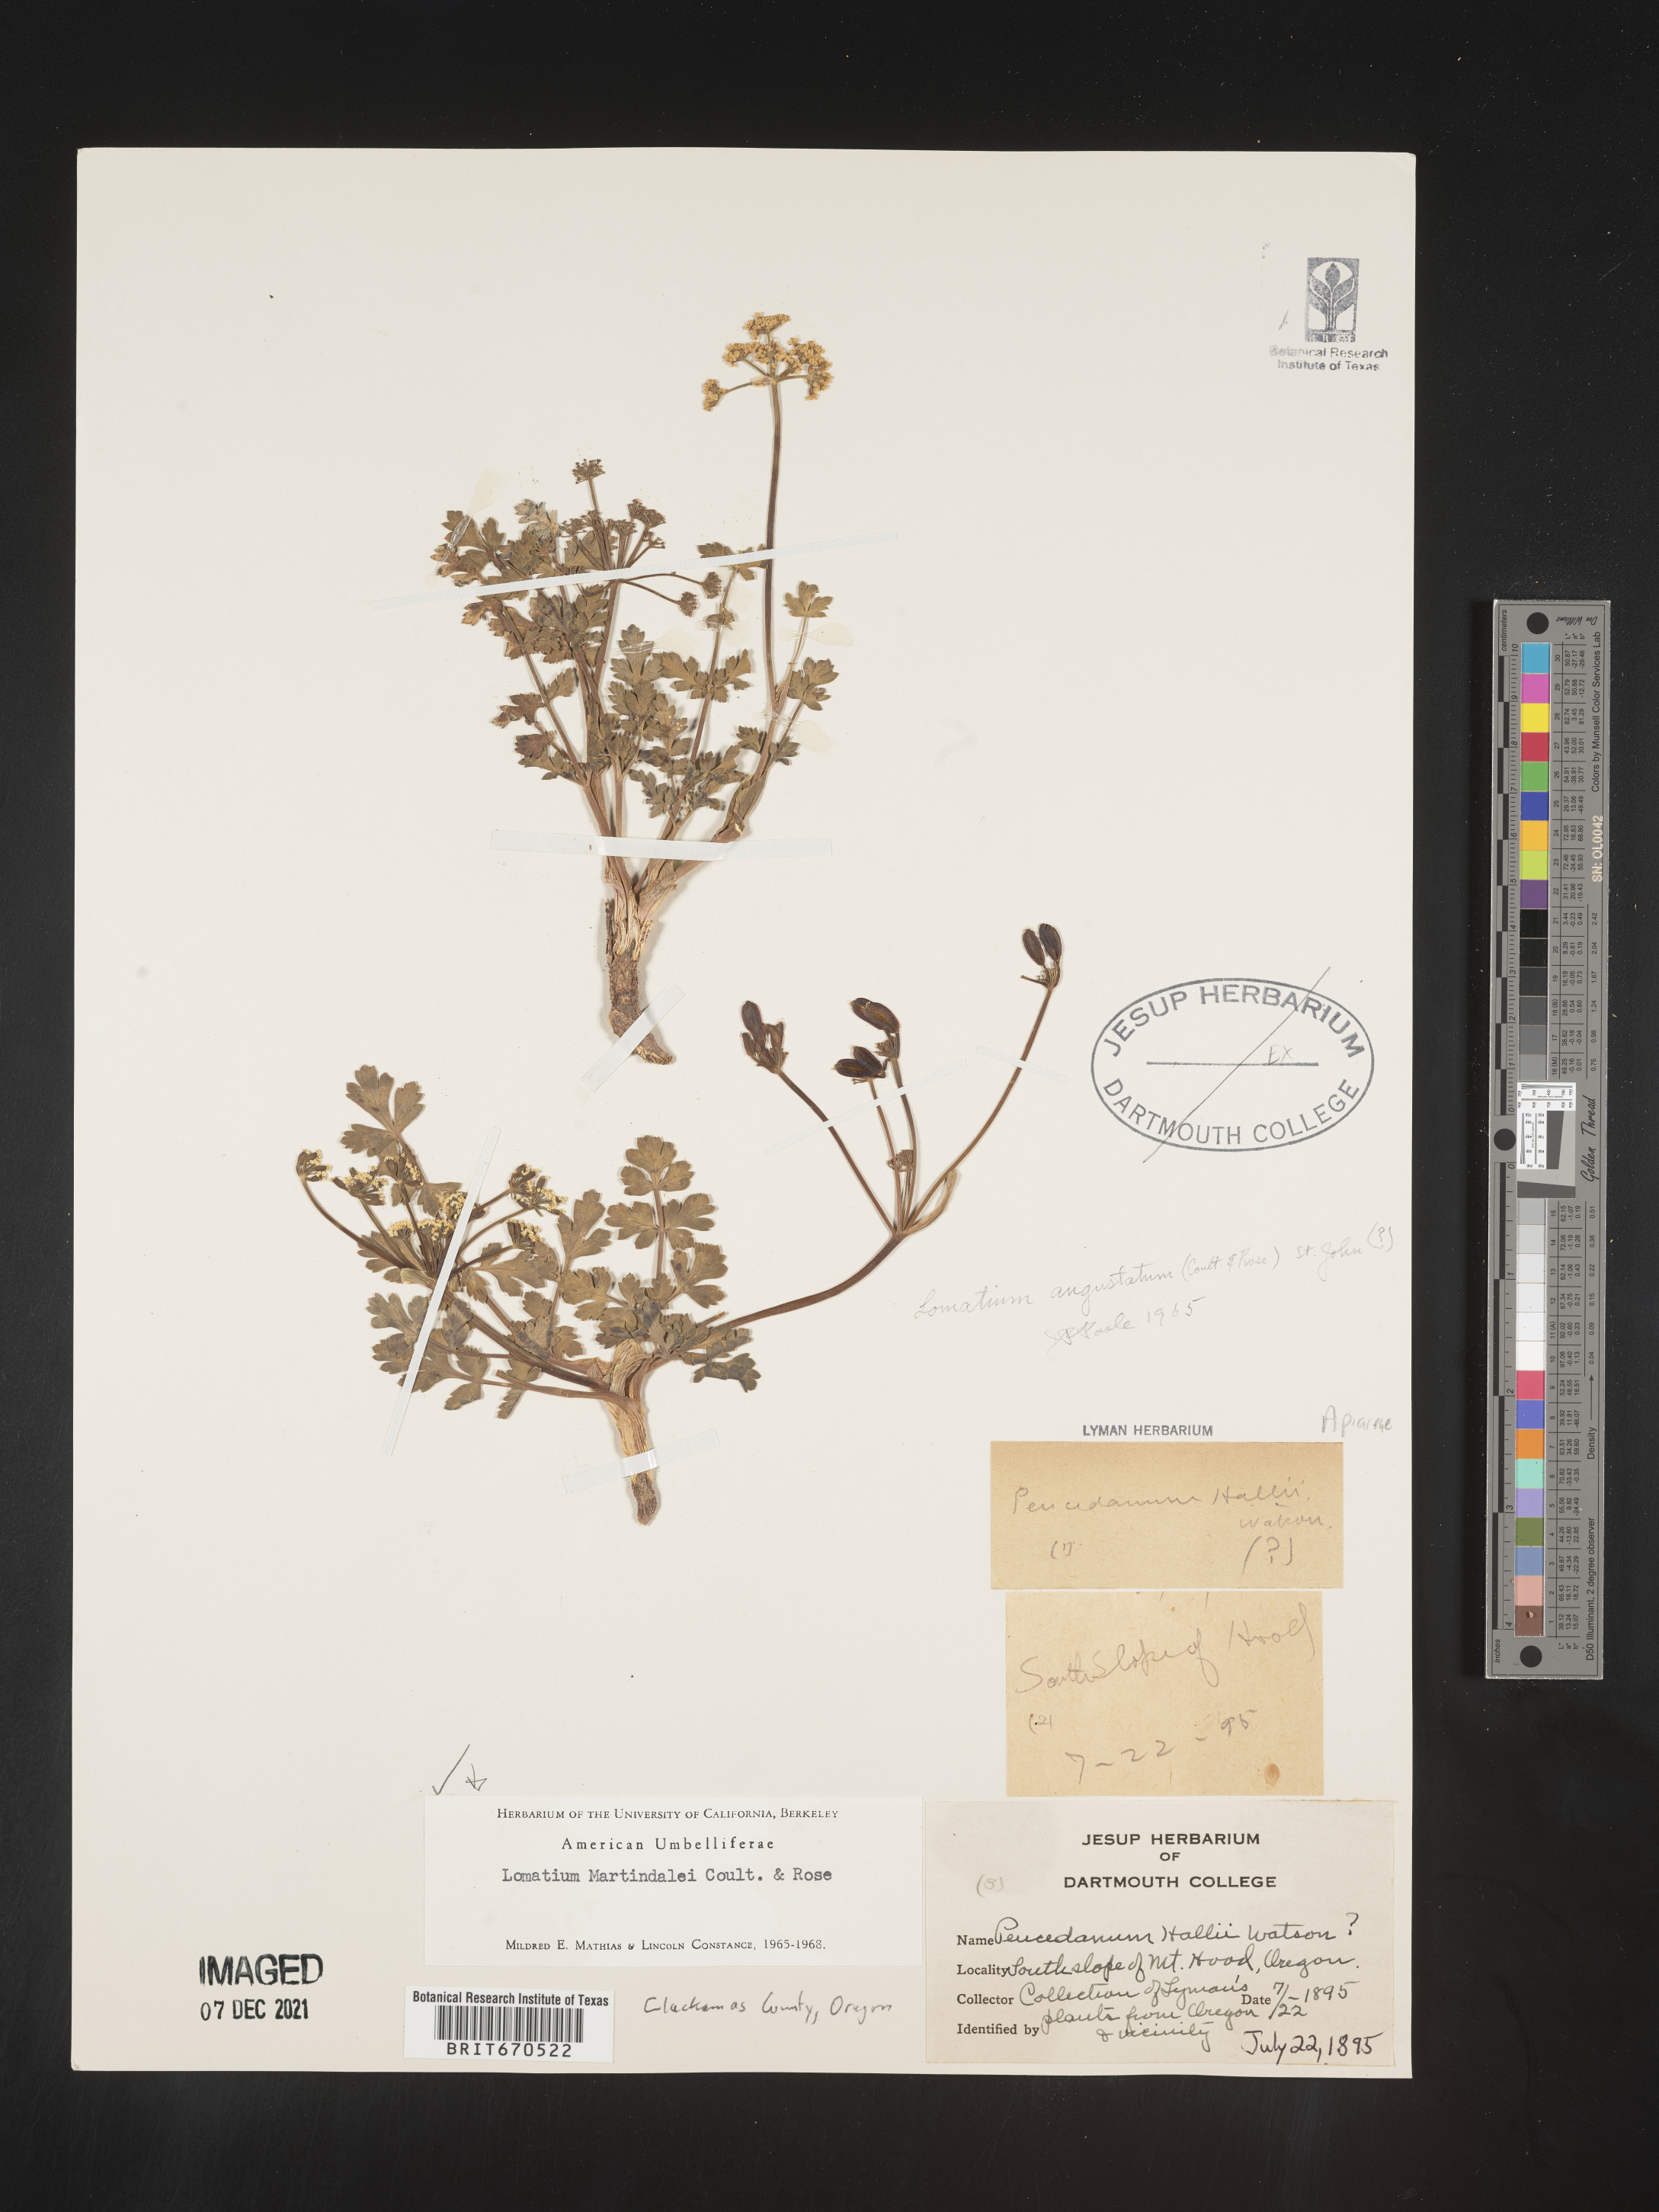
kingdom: Plantae
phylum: Tracheophyta
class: Magnoliopsida
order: Apiales
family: Apiaceae
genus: Lomatium
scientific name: Lomatium martindalei
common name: Cascade desert-parsley
